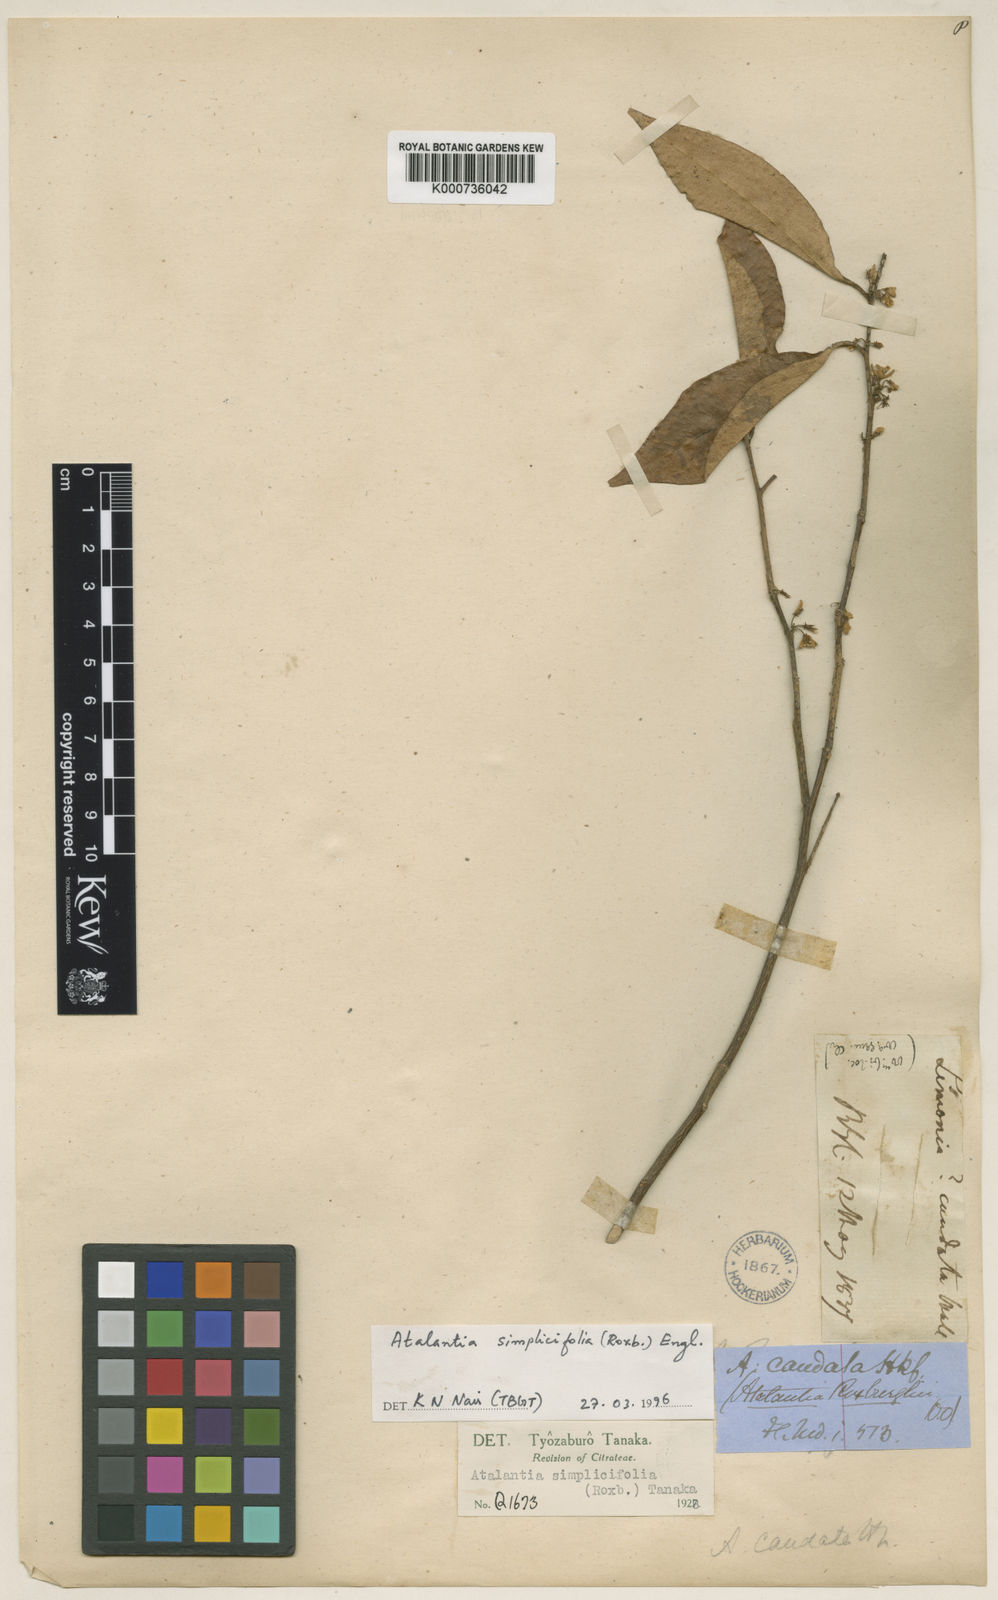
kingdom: Plantae
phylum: Tracheophyta
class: Magnoliopsida
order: Sapindales
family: Rutaceae
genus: Atalantia
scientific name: Atalantia
